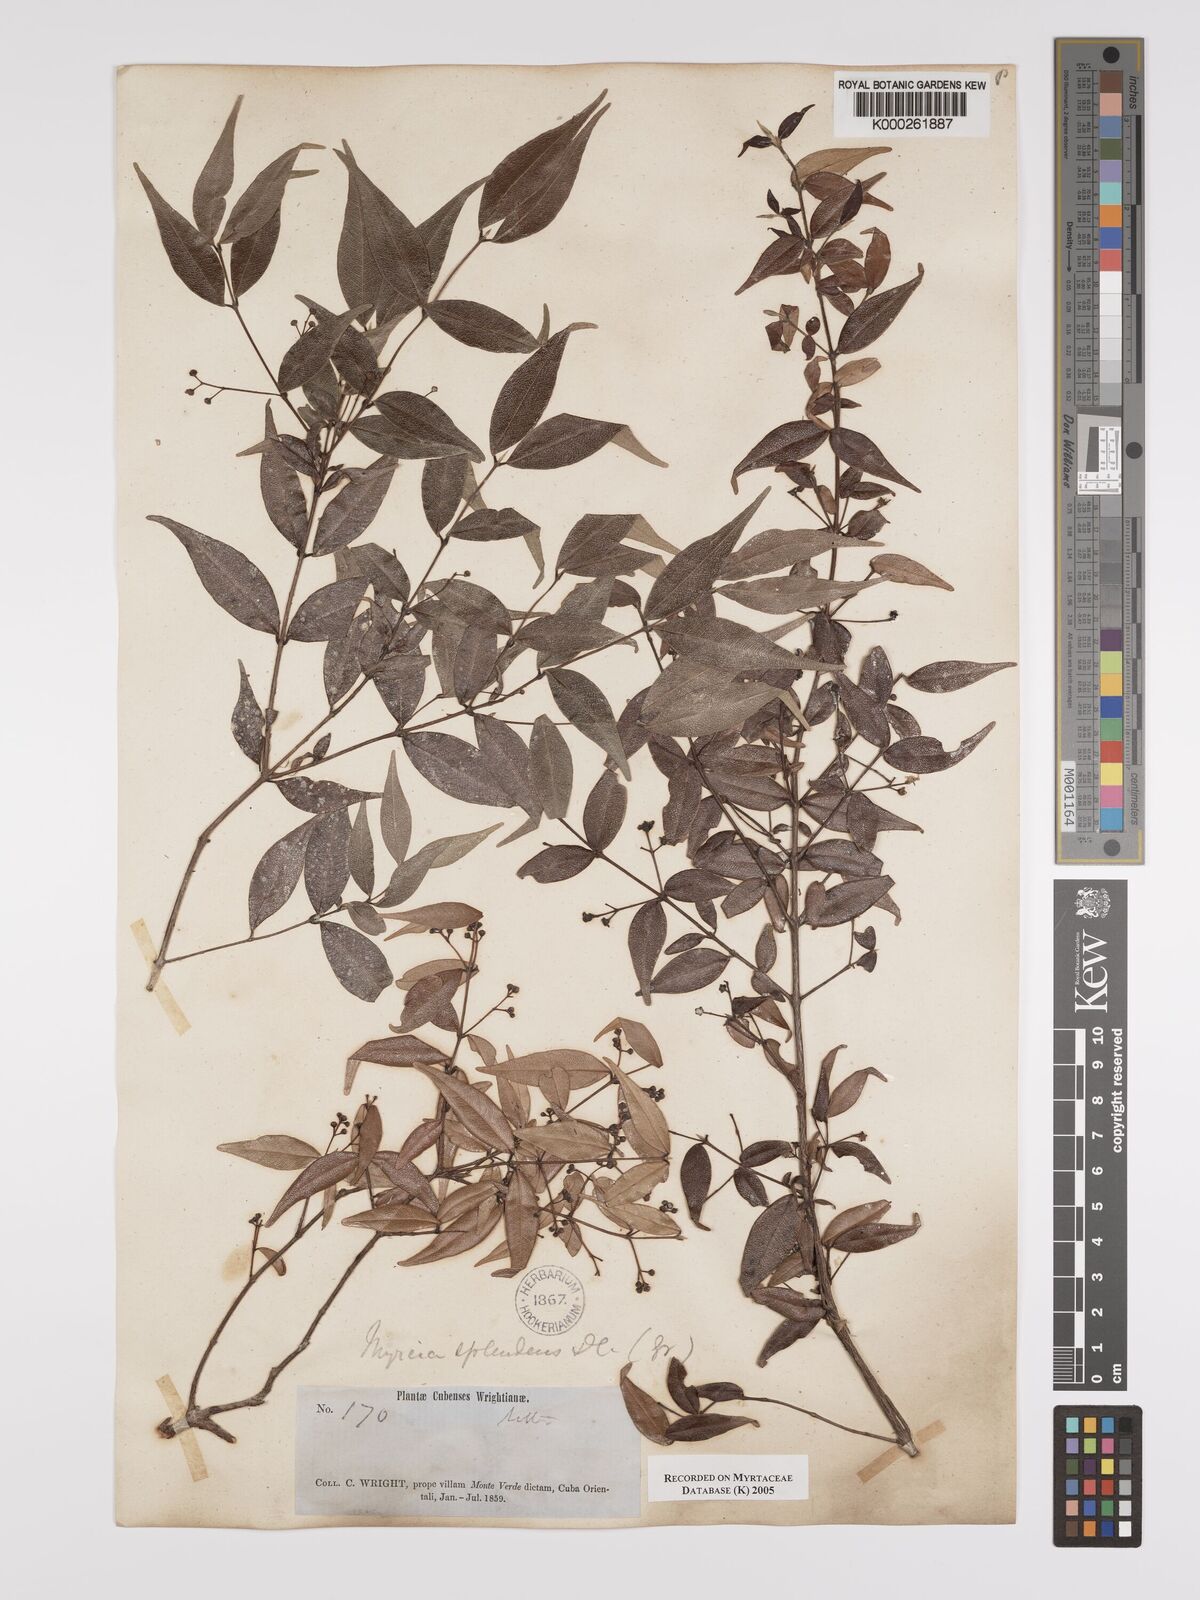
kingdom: Plantae
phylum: Tracheophyta
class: Magnoliopsida
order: Myrtales
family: Myrtaceae
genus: Myrcia
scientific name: Myrcia splendens
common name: Surinam cherry
